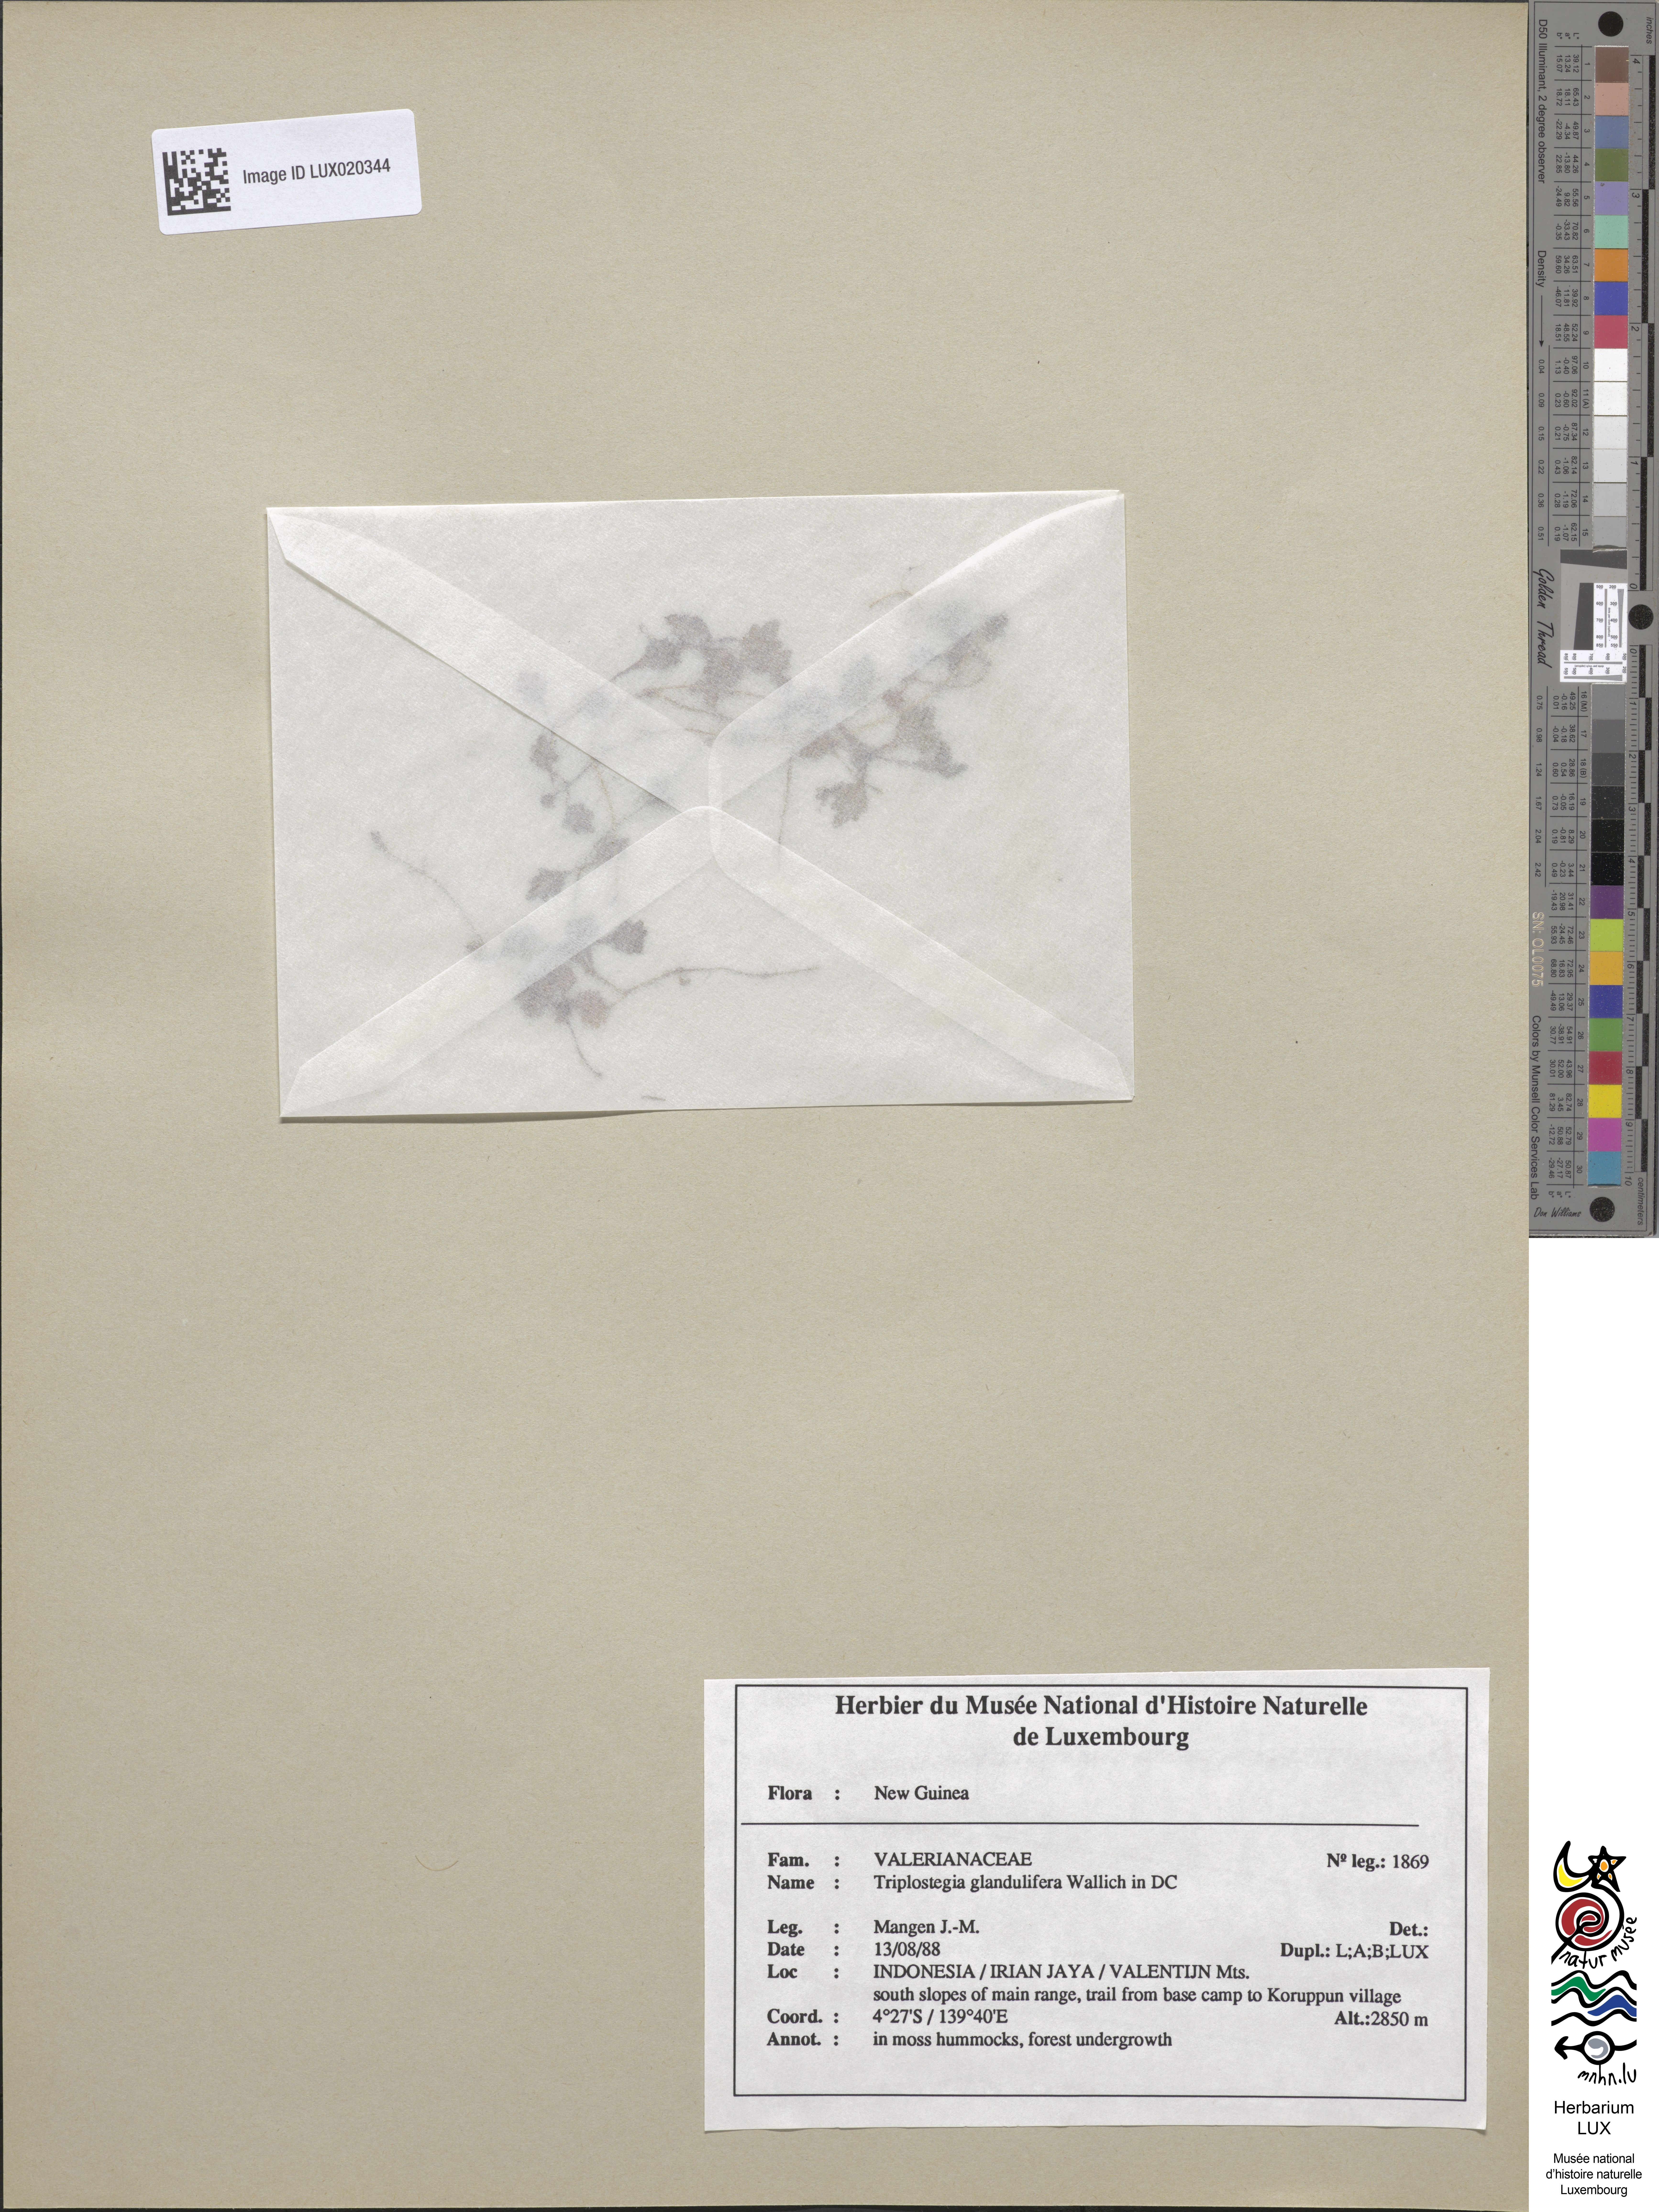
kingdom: Plantae
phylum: Tracheophyta
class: Magnoliopsida
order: Dipsacales
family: Caprifoliaceae
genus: Triplostegia
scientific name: Triplostegia glandulifera
